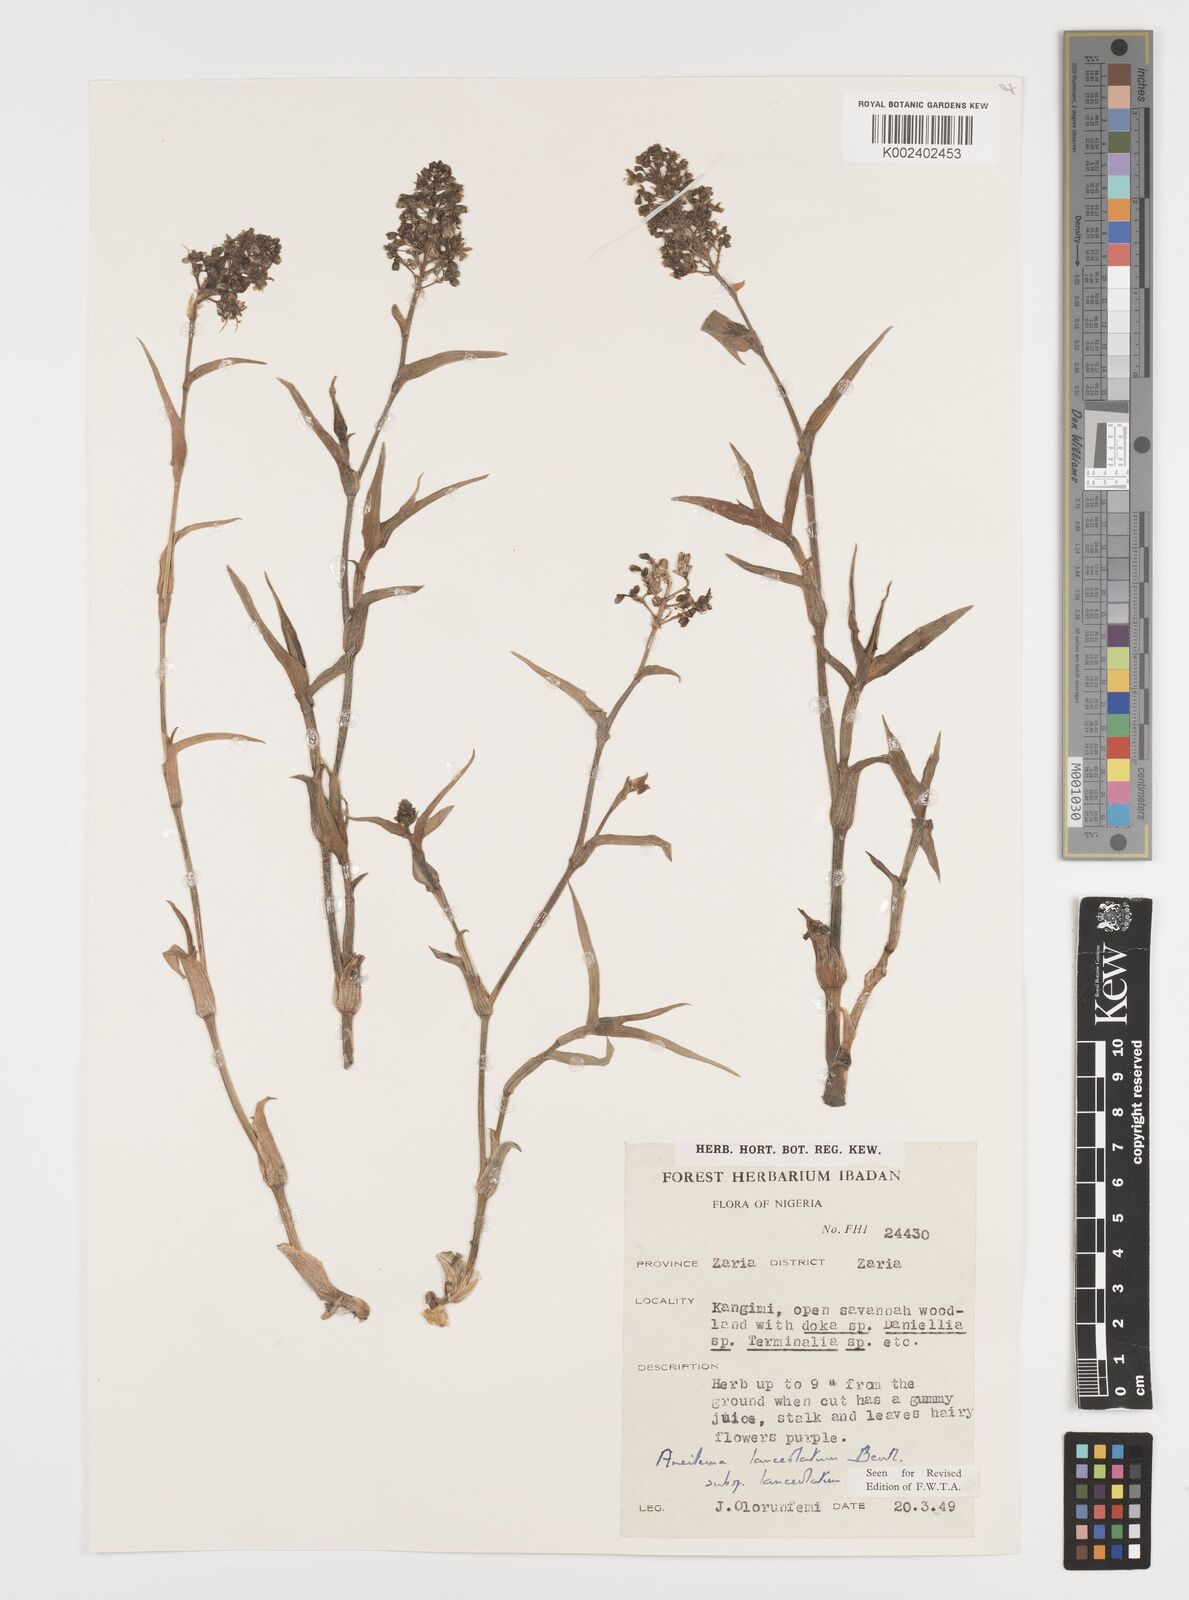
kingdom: Plantae
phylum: Tracheophyta
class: Liliopsida
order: Commelinales
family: Commelinaceae
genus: Aneilema
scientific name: Aneilema lanceolatum
